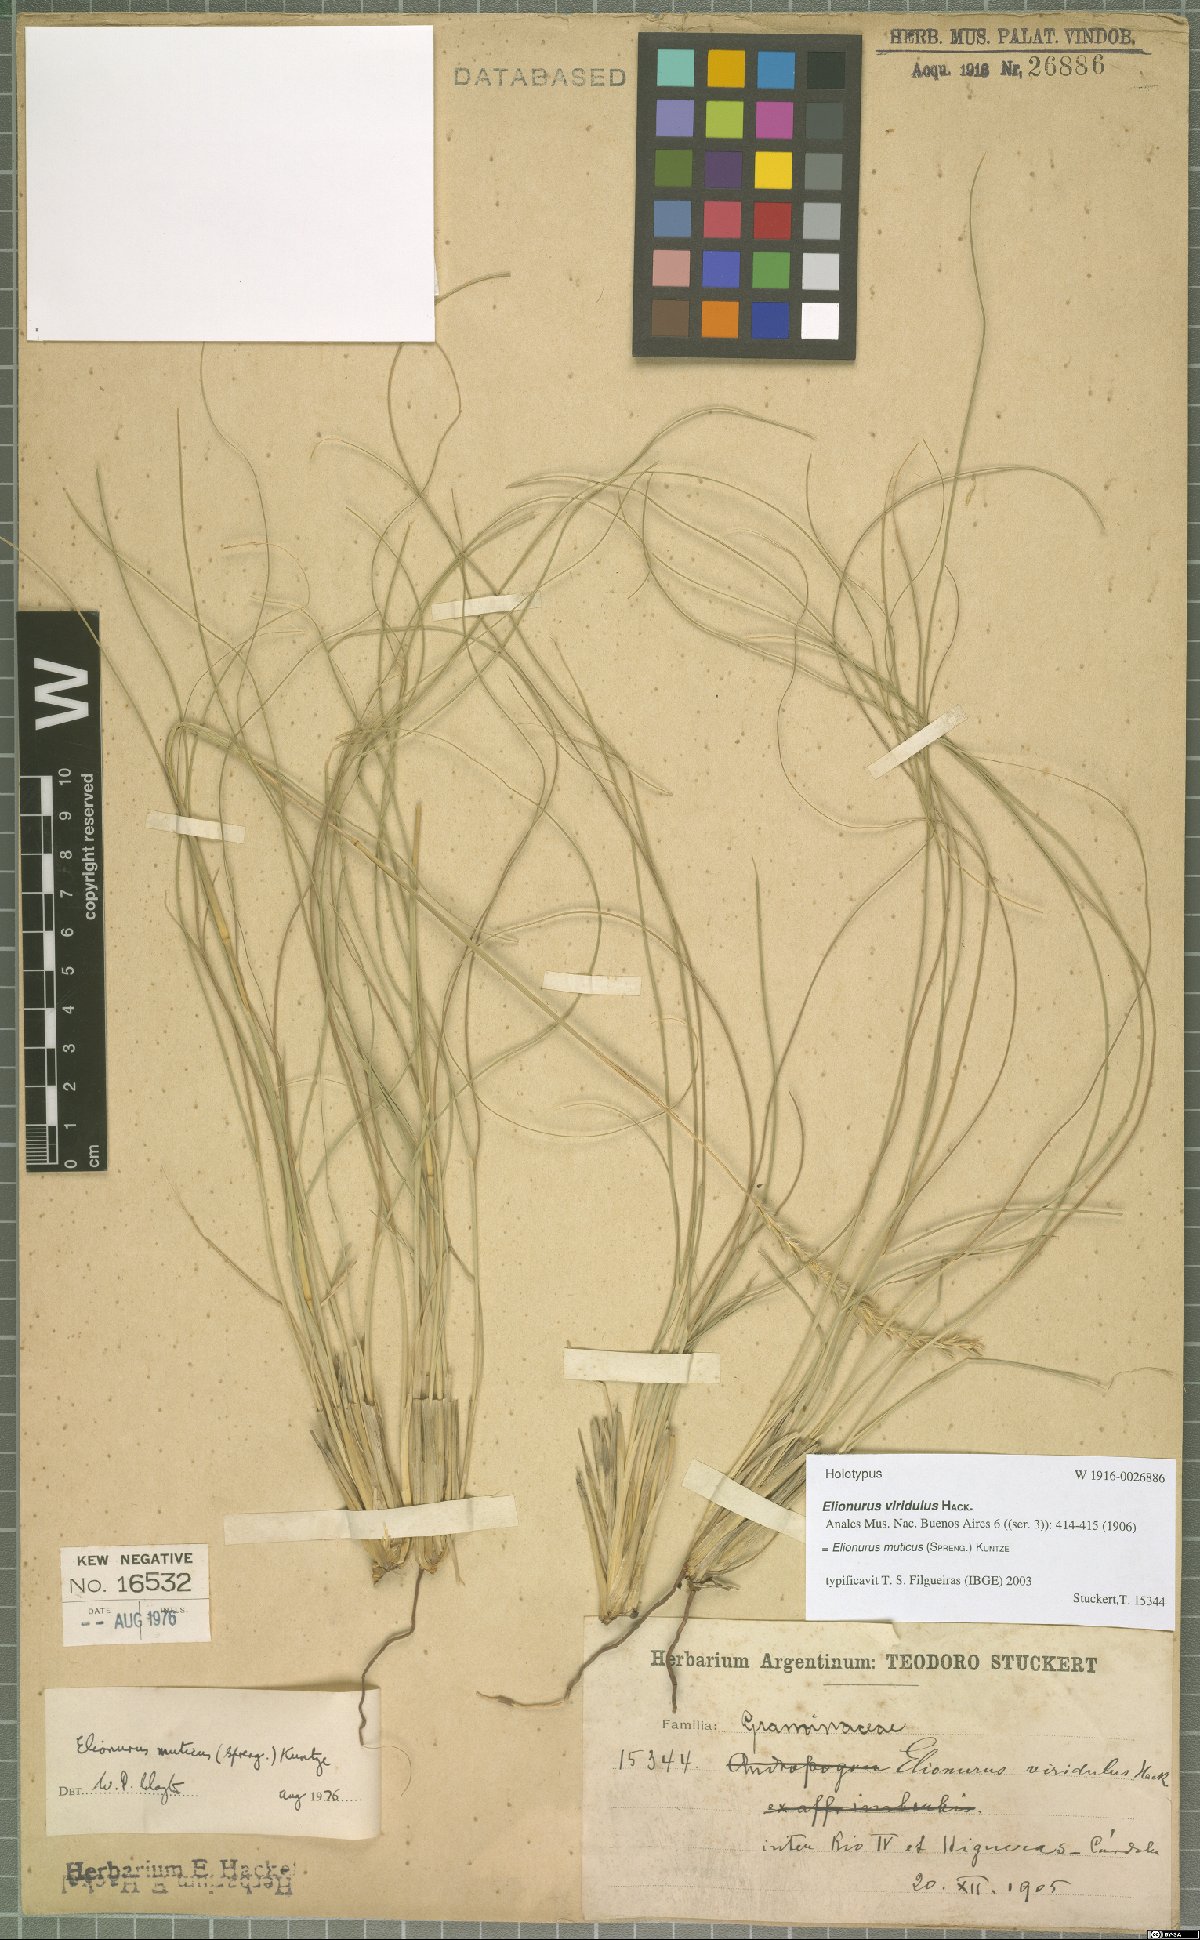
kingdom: Plantae
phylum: Tracheophyta
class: Liliopsida
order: Poales
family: Poaceae
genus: Elionurus
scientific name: Elionurus muticus
